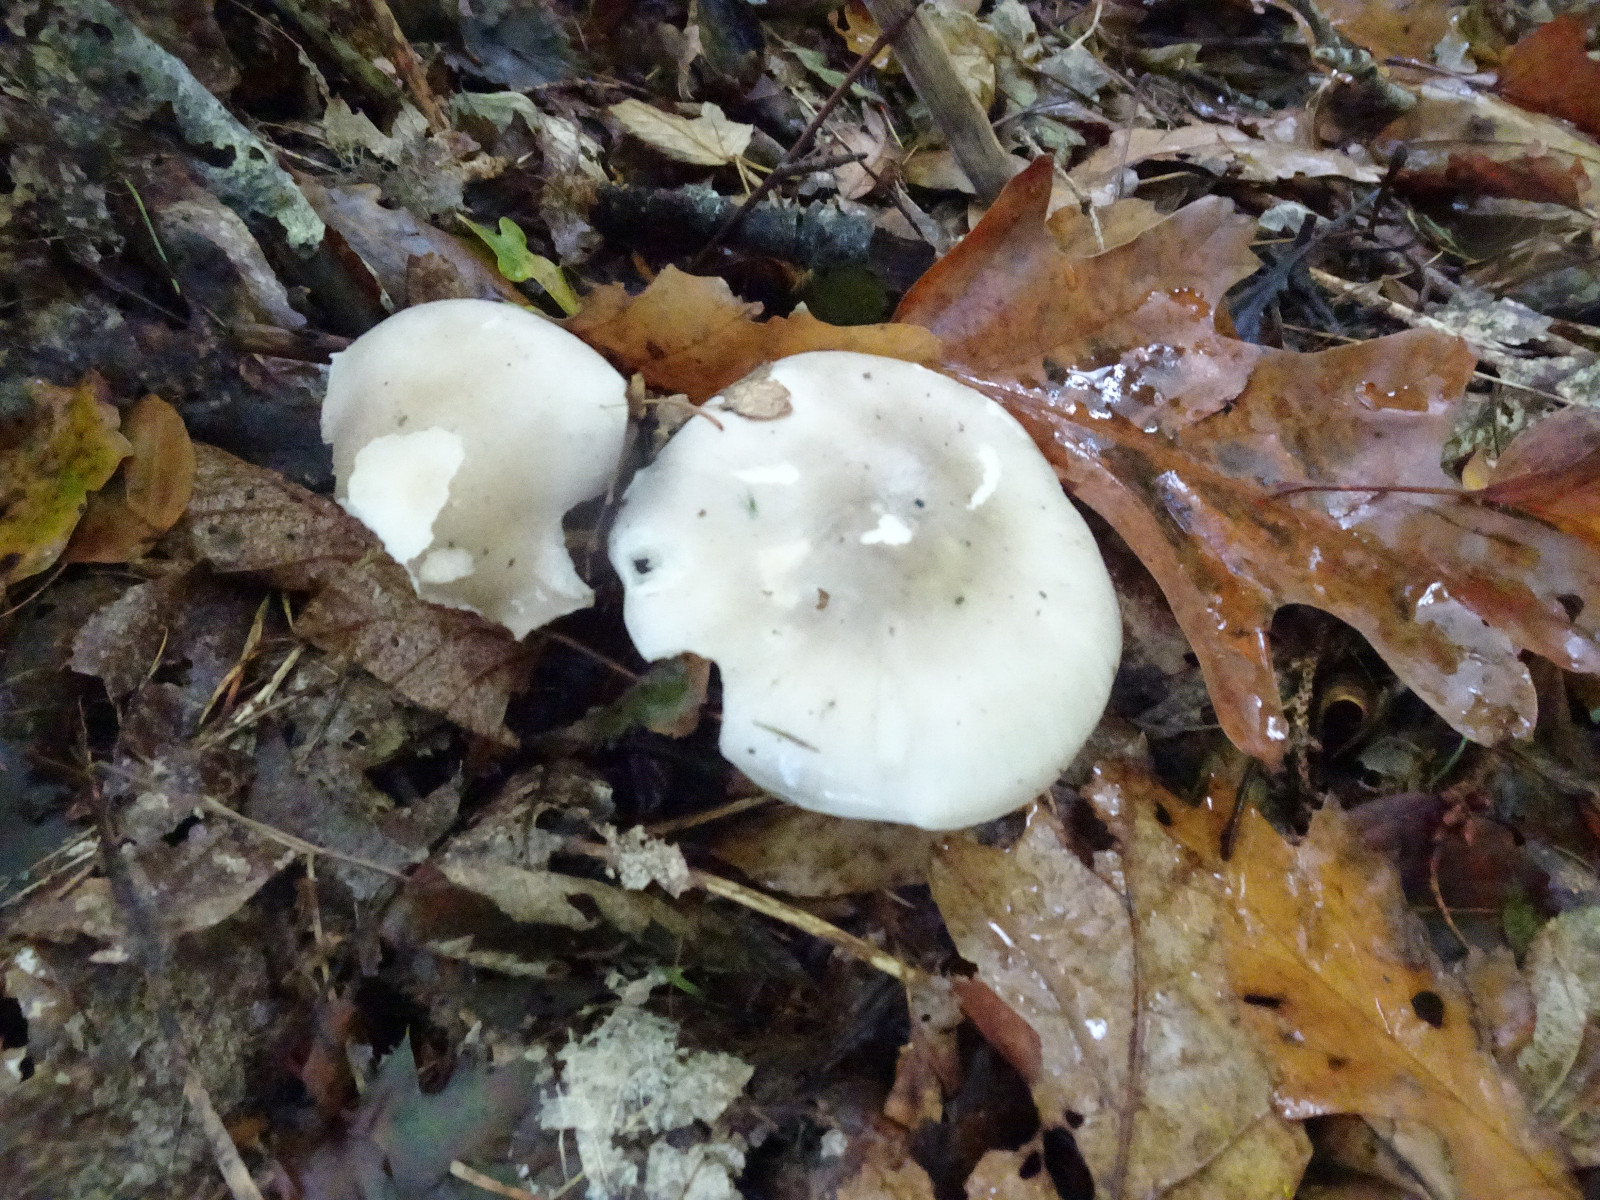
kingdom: Fungi
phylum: Basidiomycota
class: Agaricomycetes
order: Agaricales
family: Tricholomataceae
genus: Clitocybe
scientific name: Clitocybe nebularis
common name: tåge-tragthat
